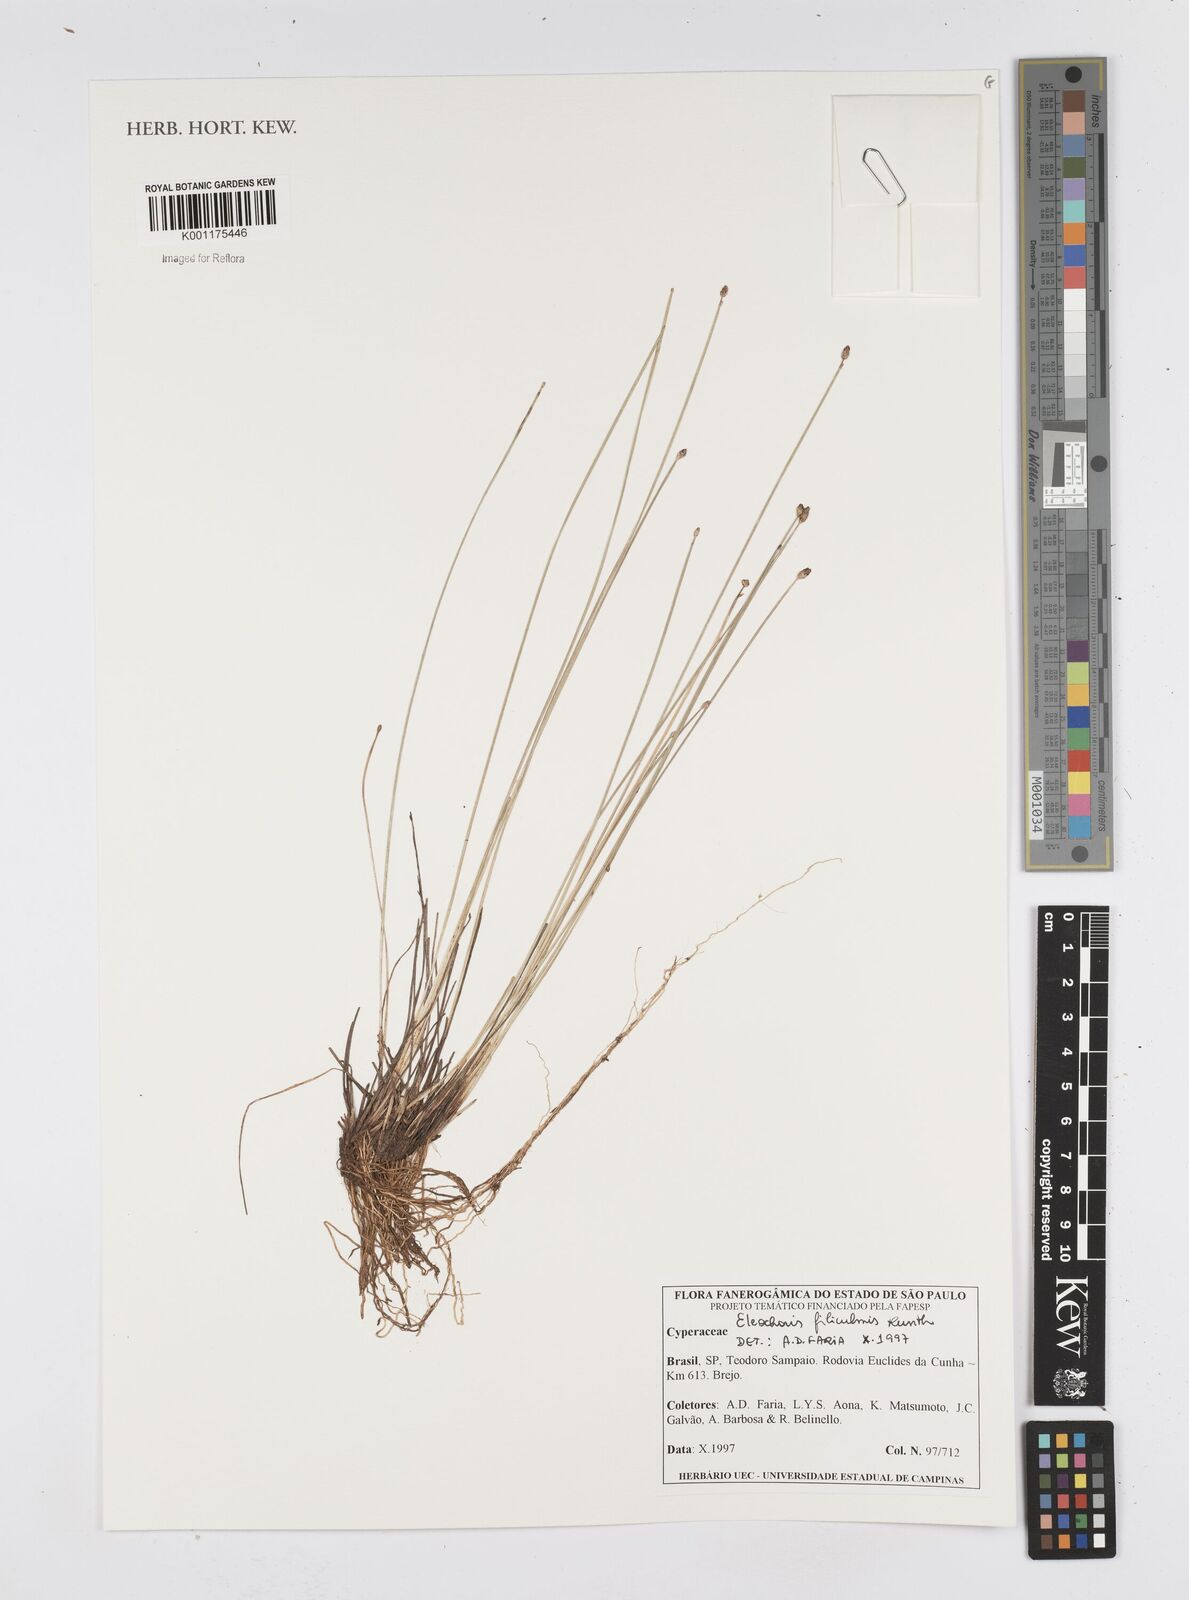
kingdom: Plantae
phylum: Tracheophyta
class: Liliopsida
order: Poales
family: Cyperaceae
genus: Eleocharis
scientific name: Eleocharis filiculmis
